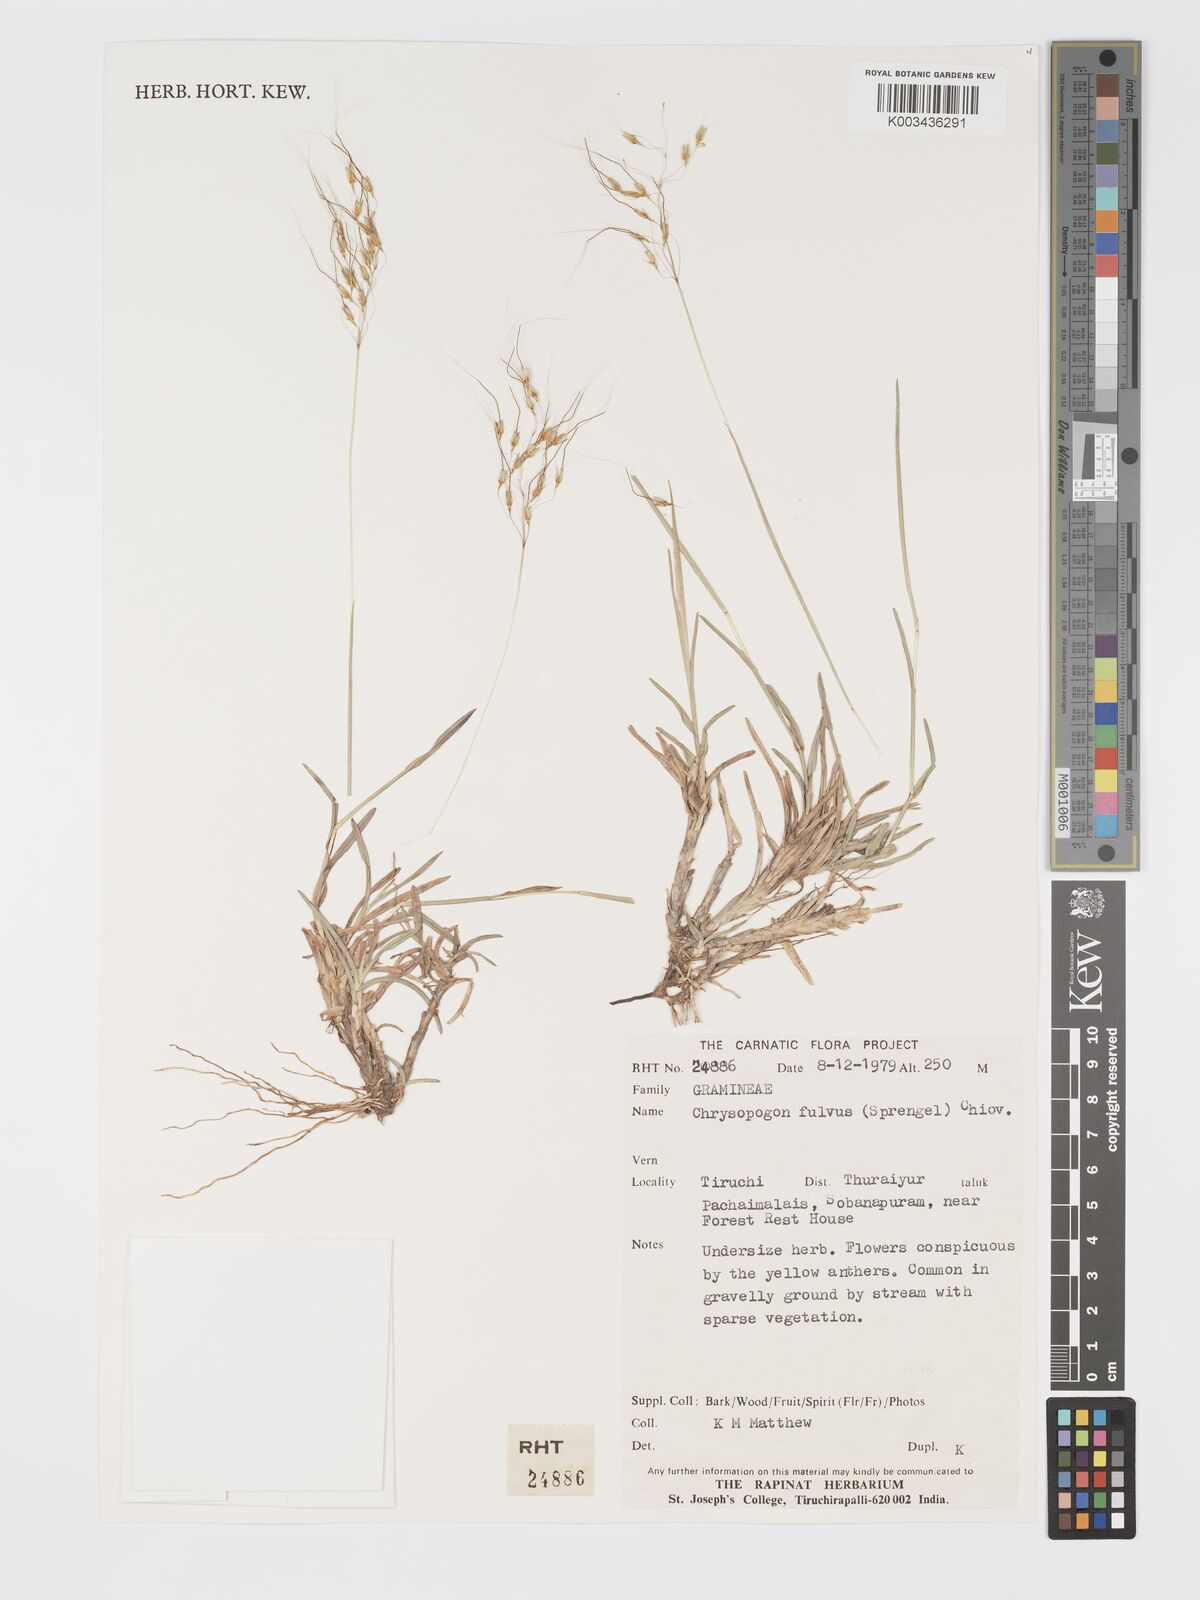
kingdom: Plantae
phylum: Tracheophyta
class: Liliopsida
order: Poales
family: Poaceae
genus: Chrysopogon
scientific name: Chrysopogon fulvus
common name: Red false beardgrass
